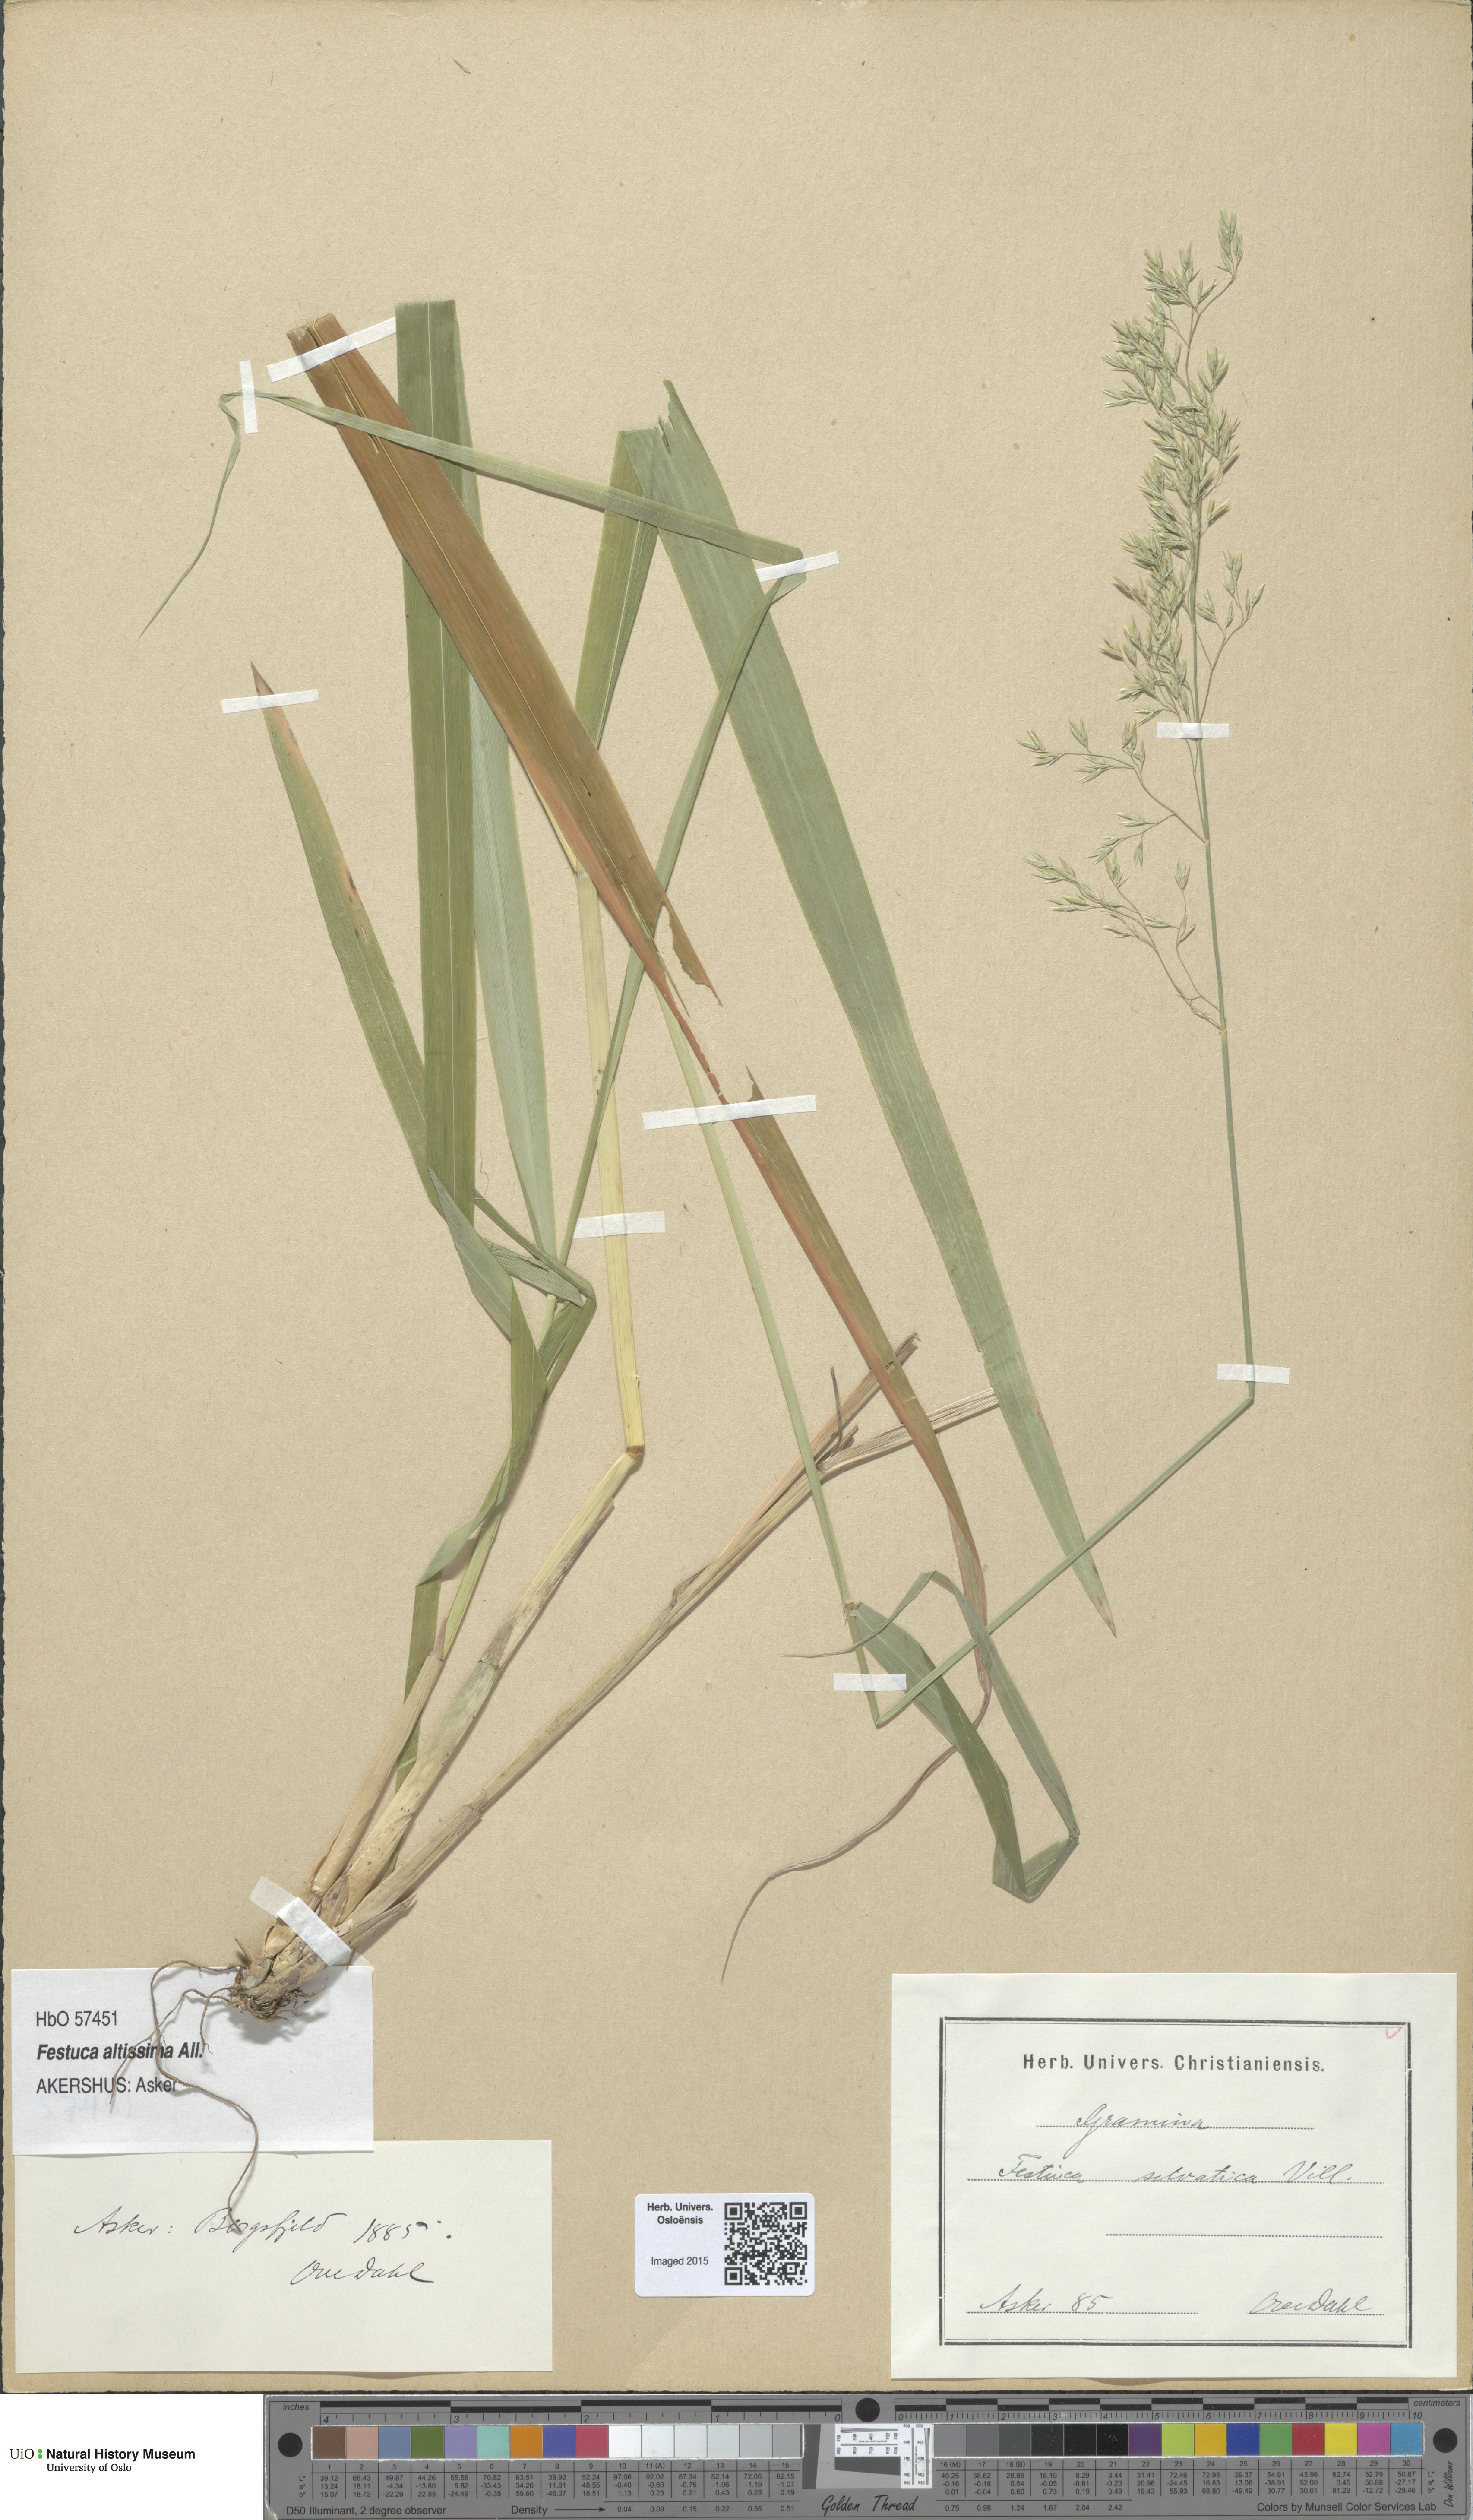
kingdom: Plantae
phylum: Tracheophyta
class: Liliopsida
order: Poales
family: Poaceae
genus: Festuca
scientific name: Festuca altissima
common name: Wood fescue
